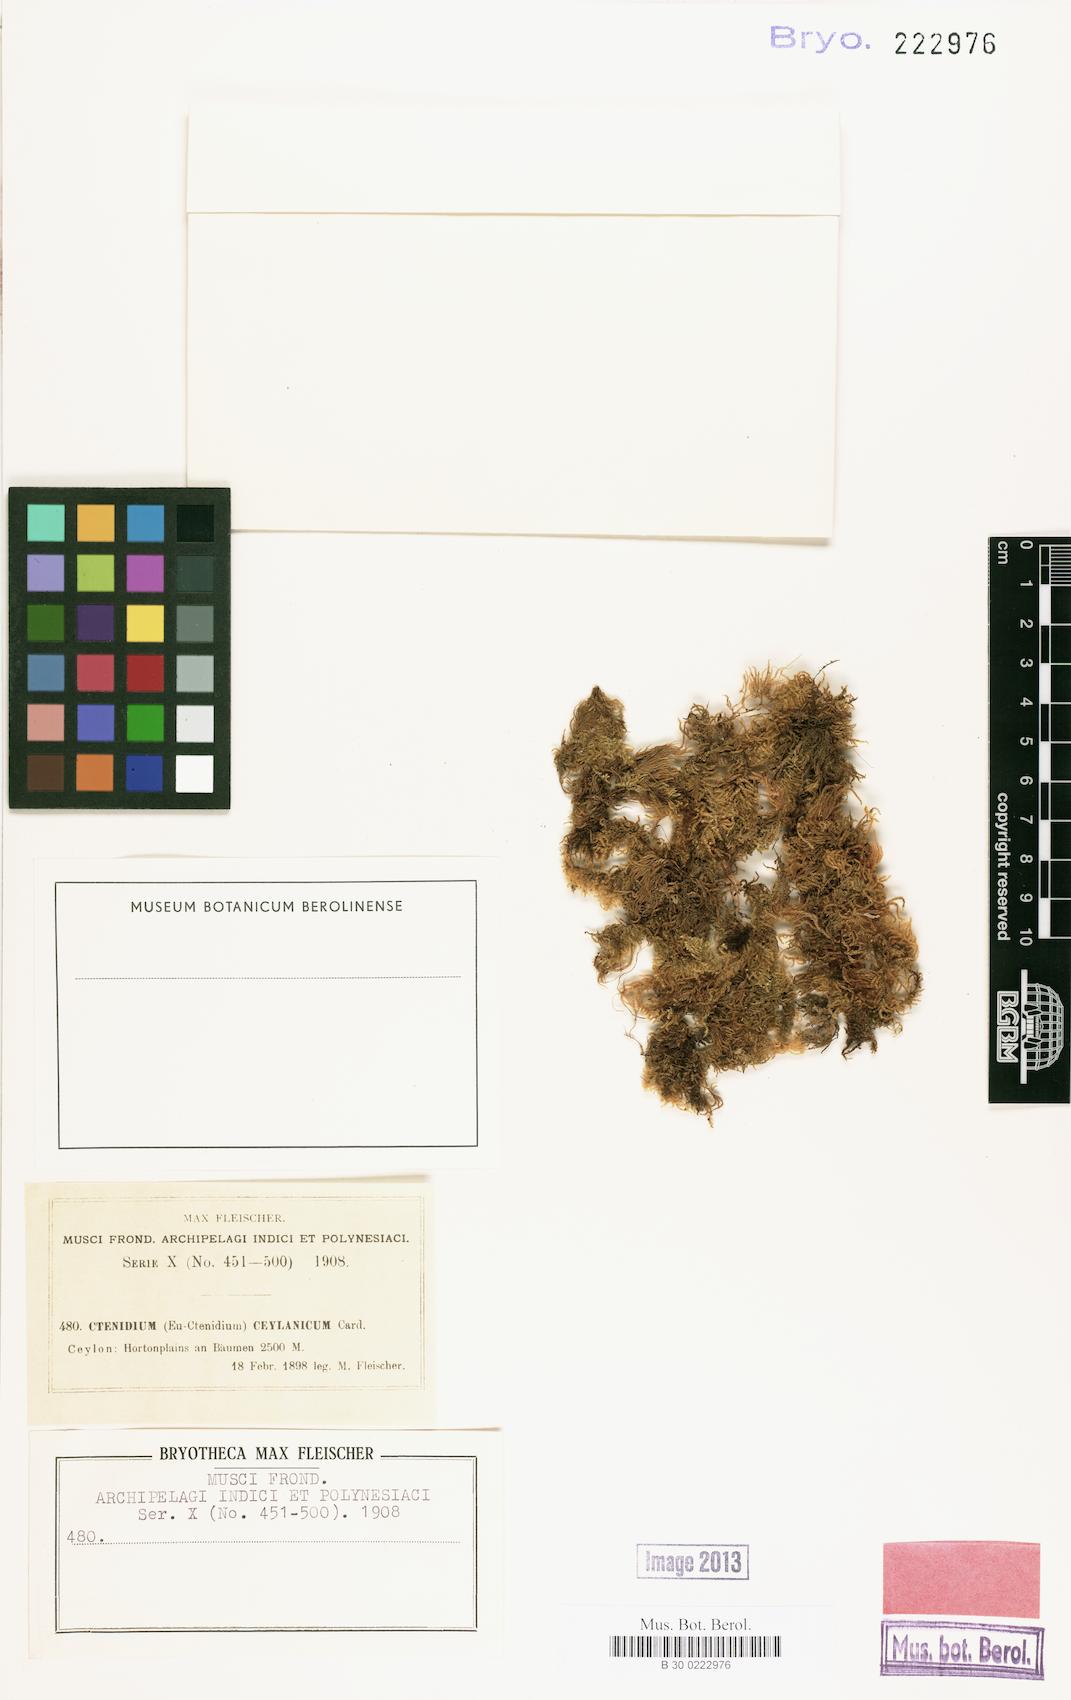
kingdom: Plantae
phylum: Bryophyta
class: Bryopsida
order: Hypnales
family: Myuriaceae
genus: Ctenidium
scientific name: Ctenidium ceylanicum
